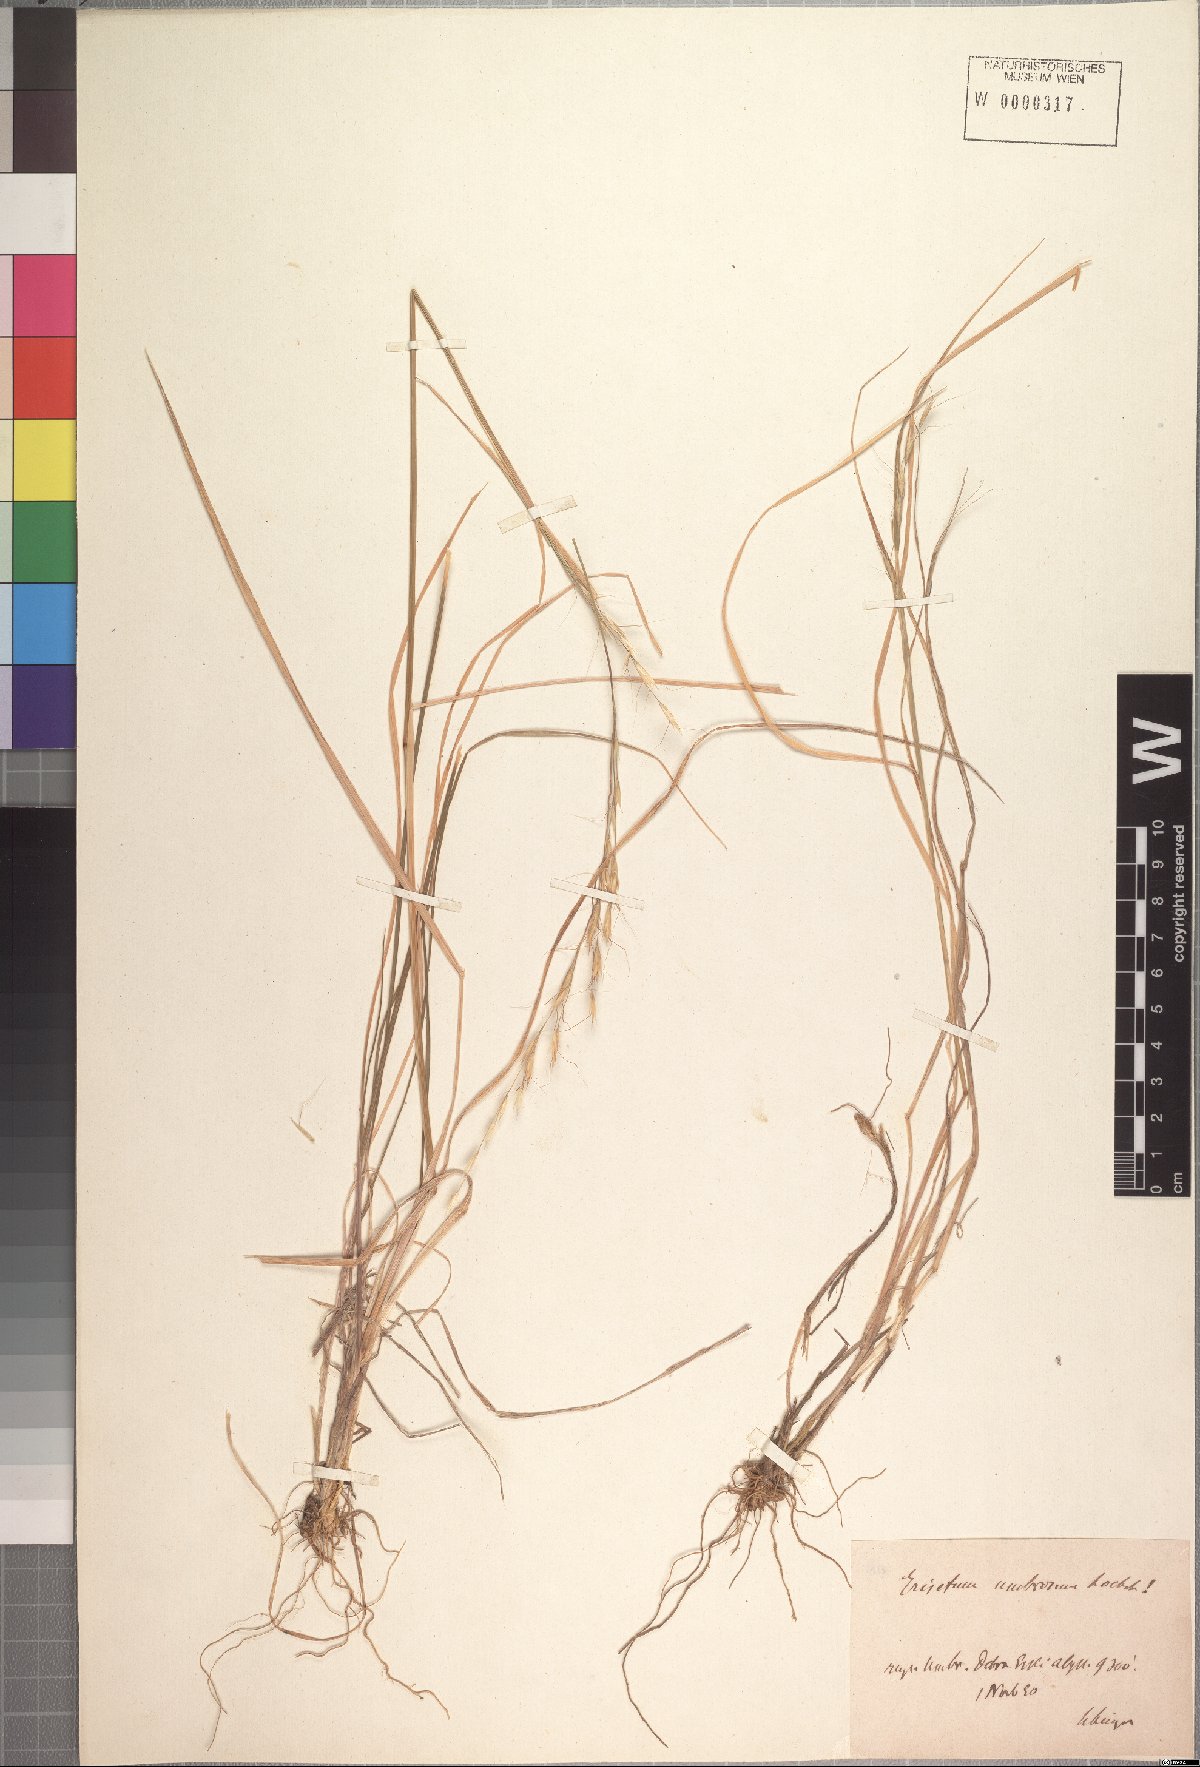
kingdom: Plantae
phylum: Tracheophyta
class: Liliopsida
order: Poales
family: Poaceae
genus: Trisetopsis
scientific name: Trisetopsis umbrosa
